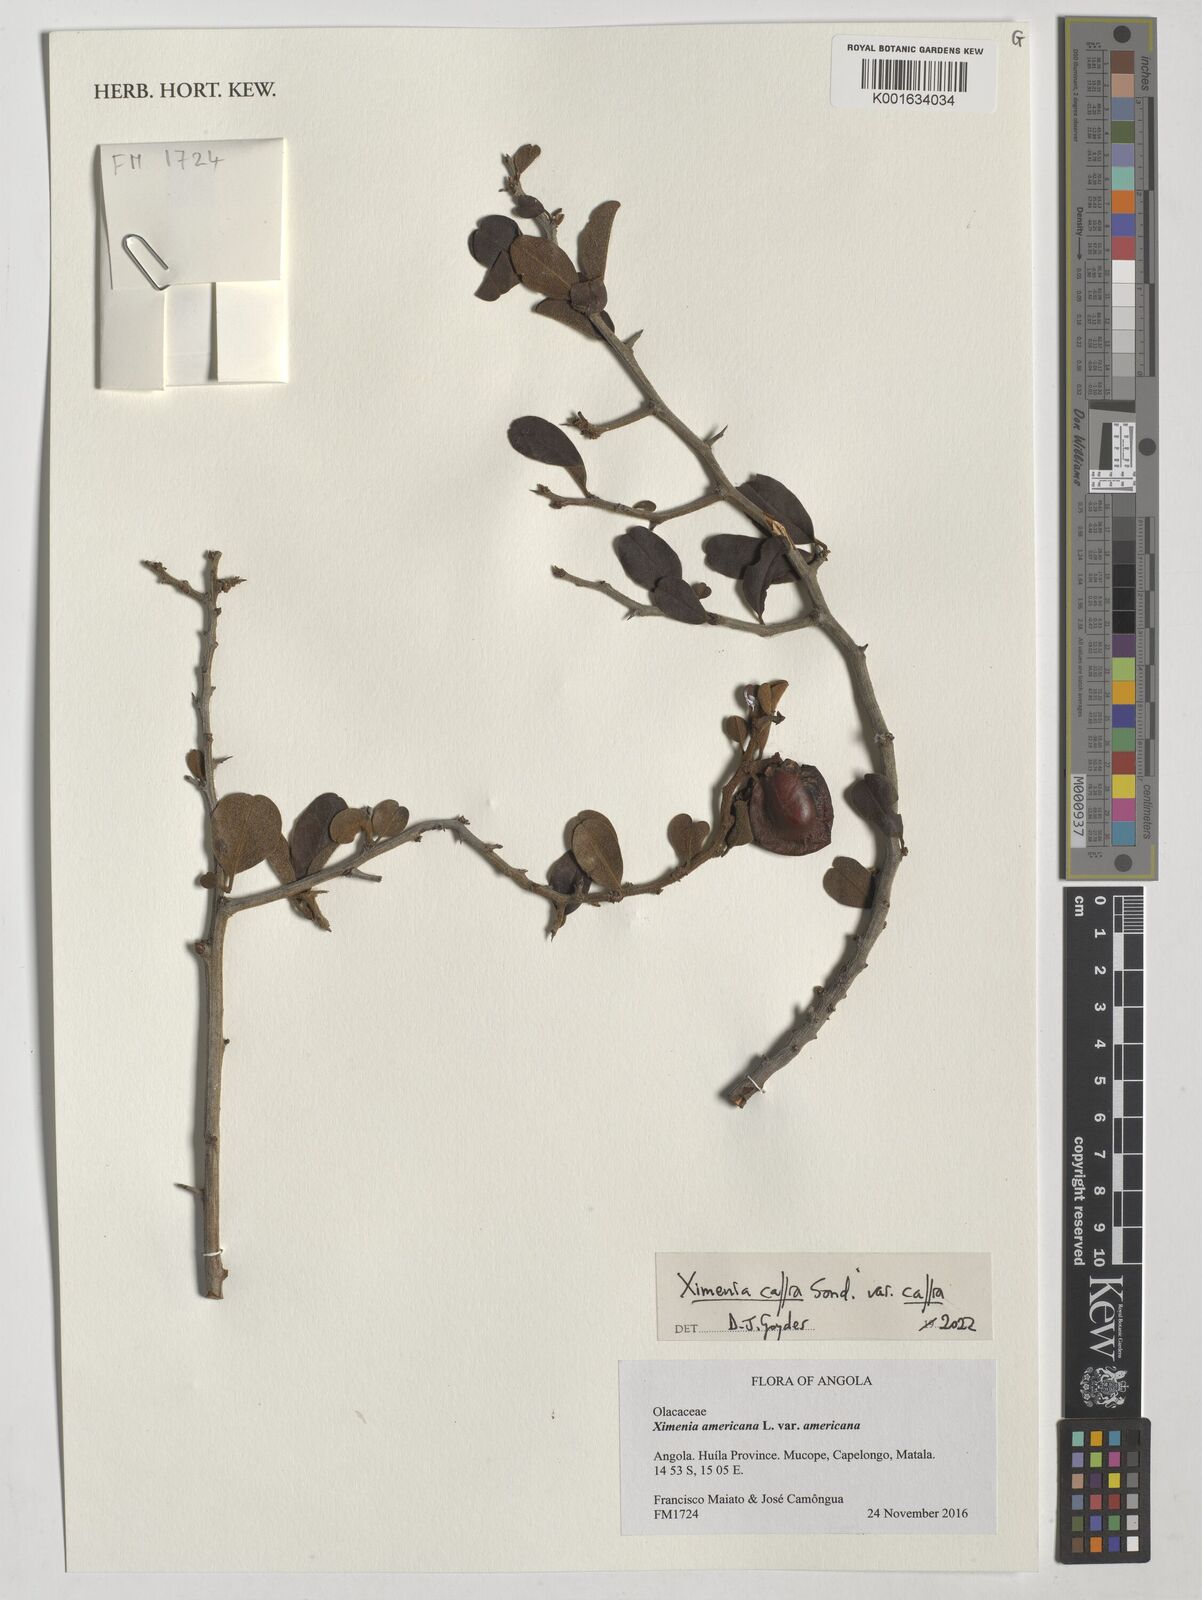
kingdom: Plantae
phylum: Tracheophyta
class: Magnoliopsida
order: Santalales
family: Ximeniaceae
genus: Ximenia
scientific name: Ximenia caffra
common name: Large sourplum
